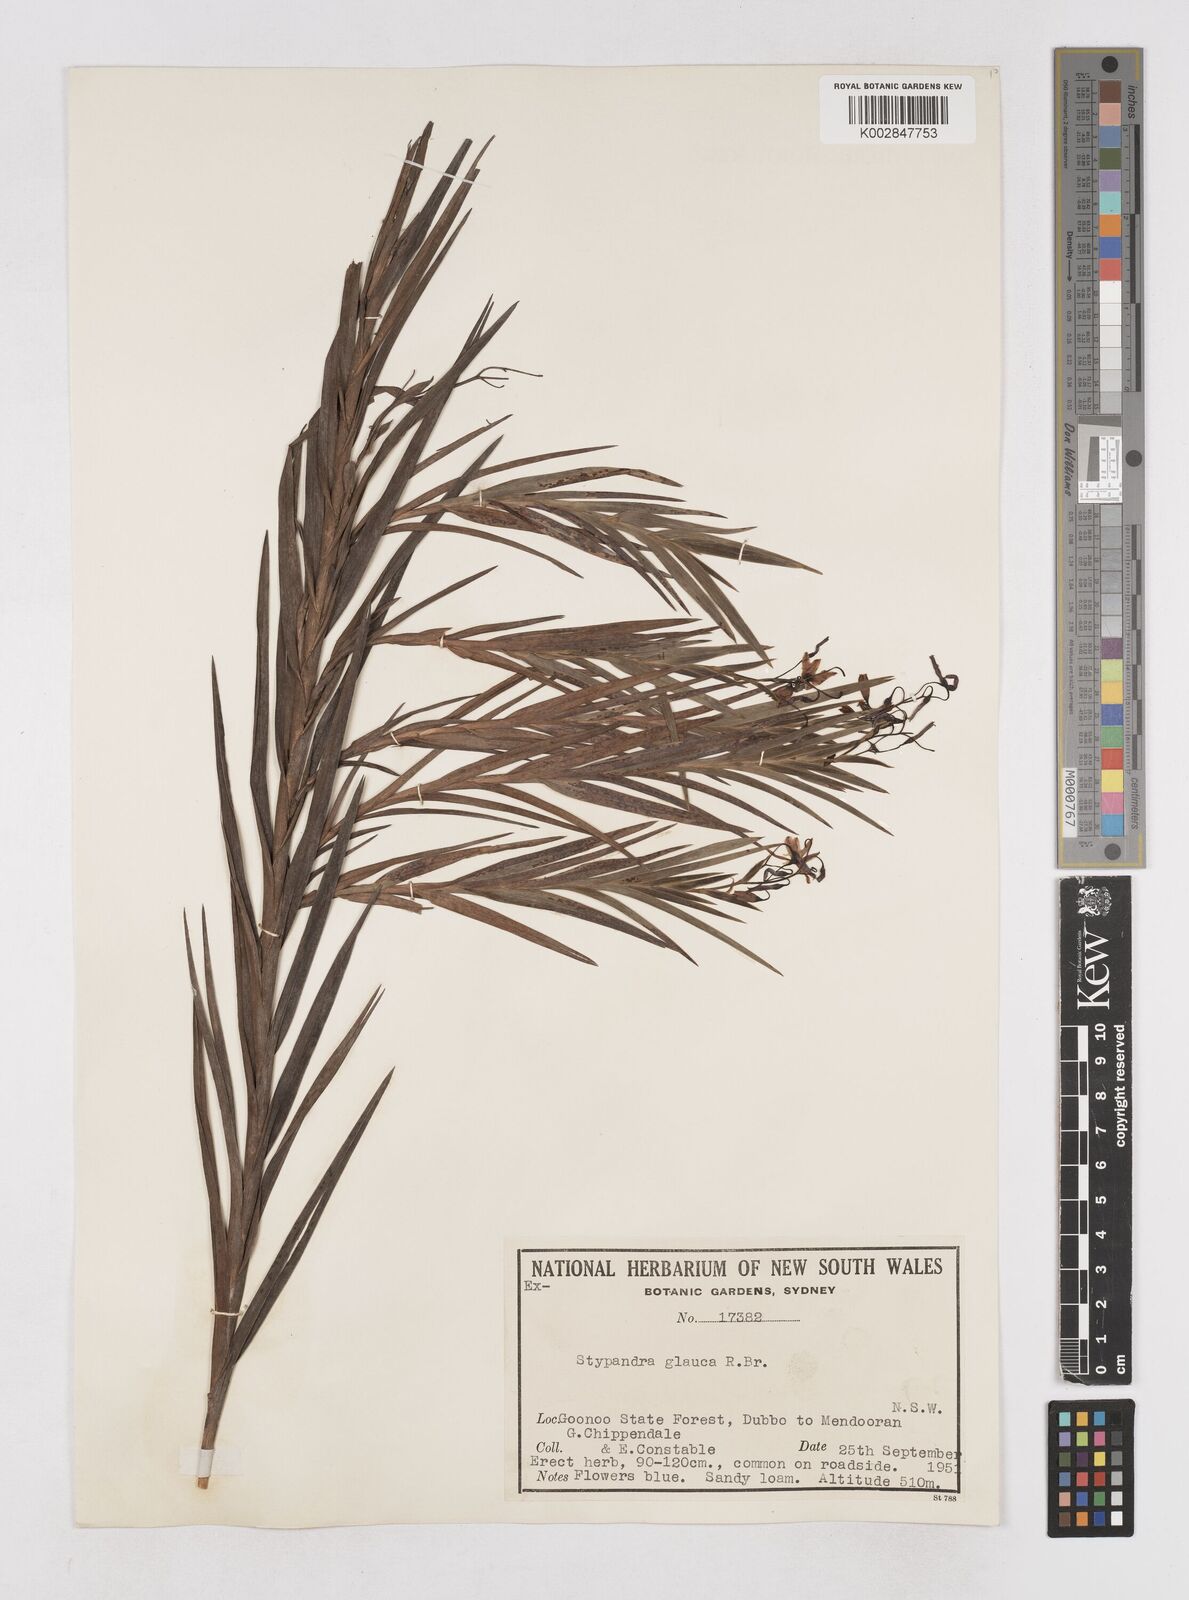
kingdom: Plantae
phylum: Tracheophyta
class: Liliopsida
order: Asparagales
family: Asphodelaceae
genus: Stypandra
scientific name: Stypandra glauca
